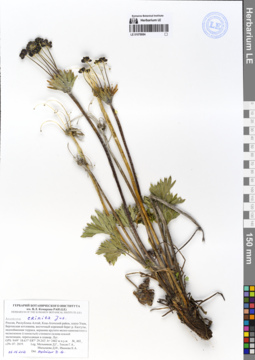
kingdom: Plantae
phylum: Tracheophyta
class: Magnoliopsida
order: Ranunculales
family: Ranunculaceae
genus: Anemonastrum
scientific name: Anemonastrum narcissiflorum
